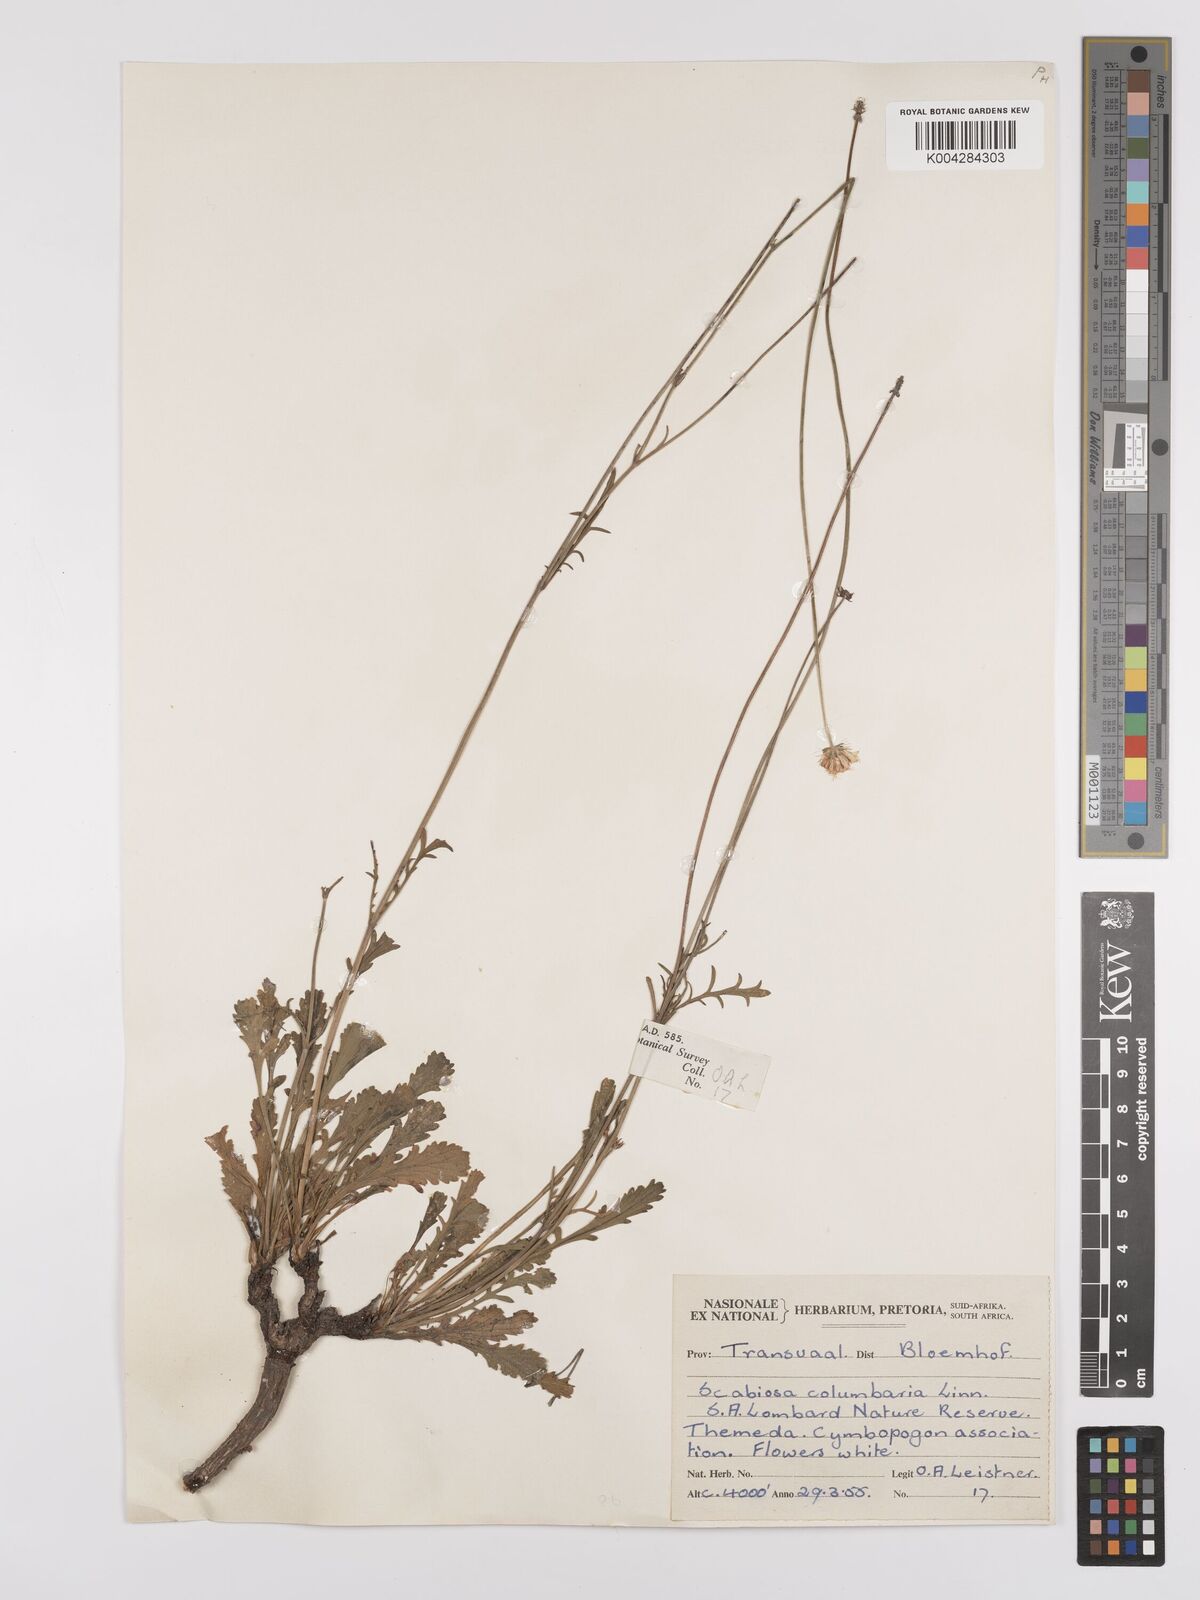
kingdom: Plantae
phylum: Tracheophyta
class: Magnoliopsida
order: Dipsacales
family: Caprifoliaceae
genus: Scabiosa
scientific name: Scabiosa austroafricana
